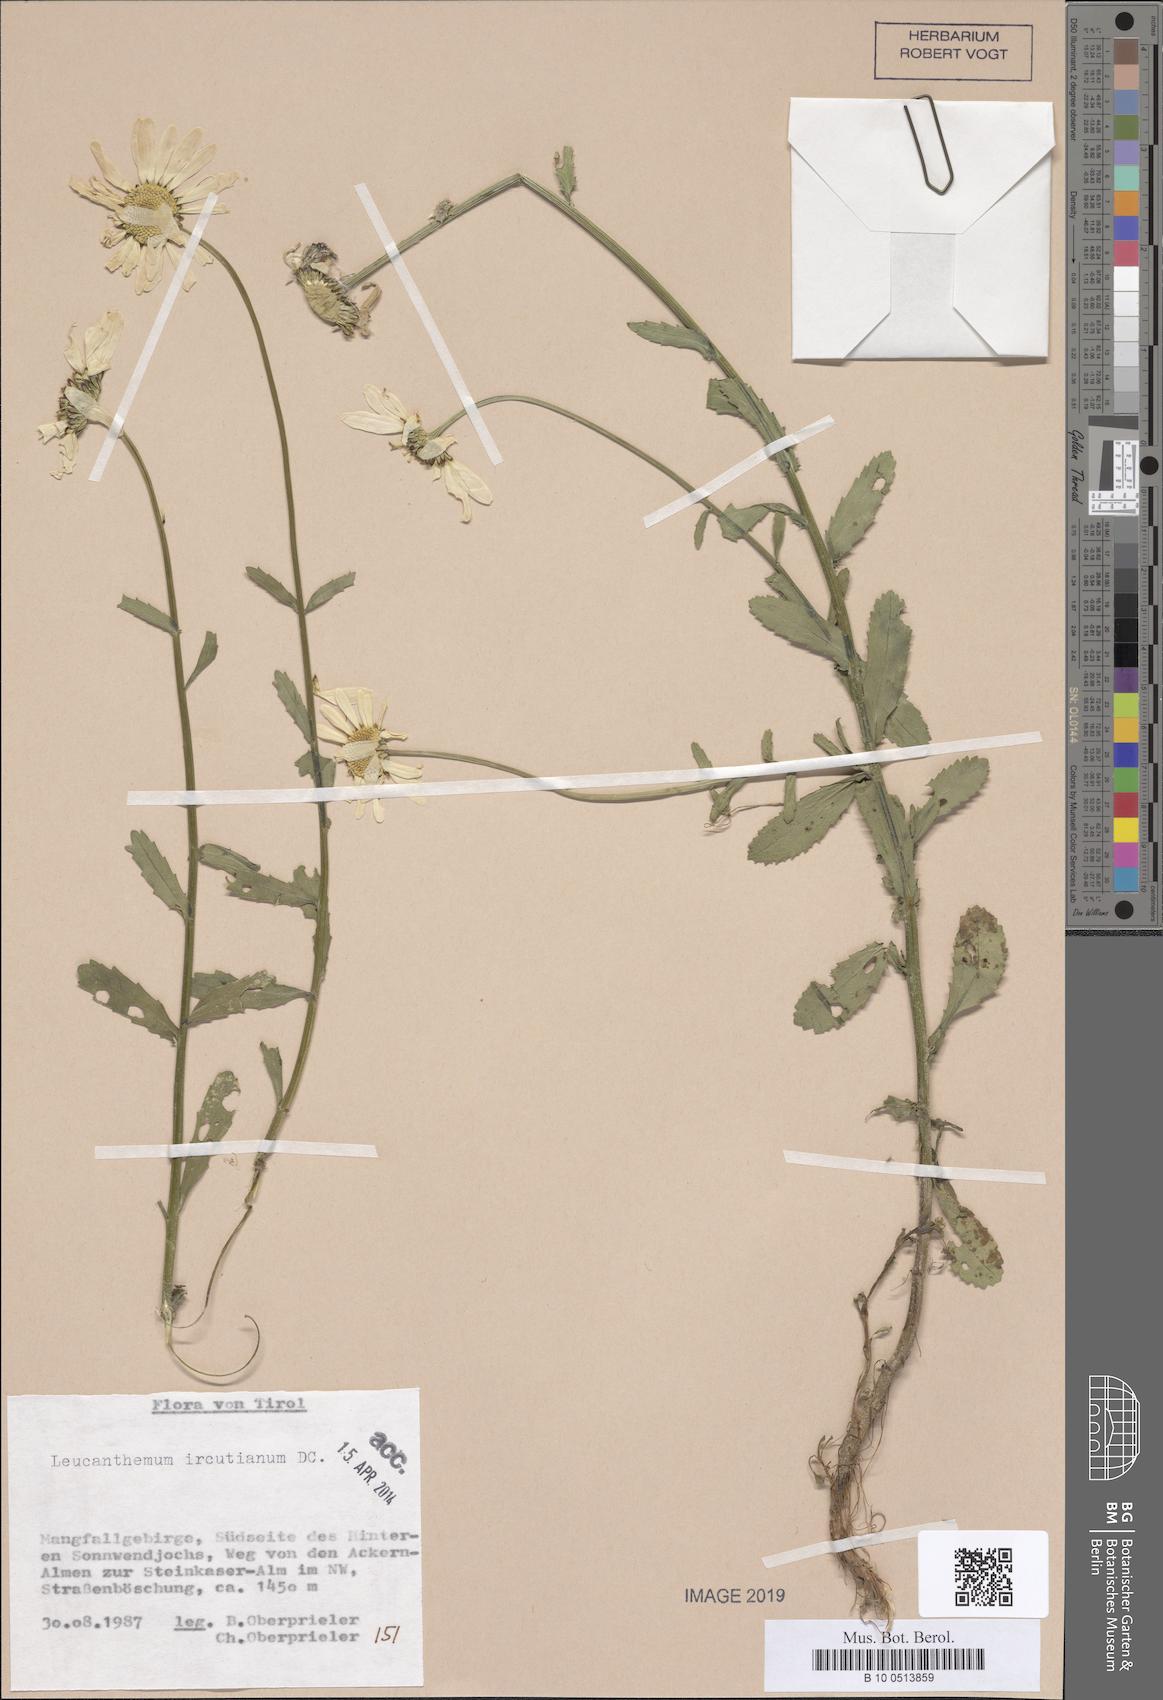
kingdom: Plantae
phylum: Tracheophyta
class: Magnoliopsida
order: Asterales
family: Asteraceae
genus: Leucanthemum
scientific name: Leucanthemum ircutianum
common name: Daisy
